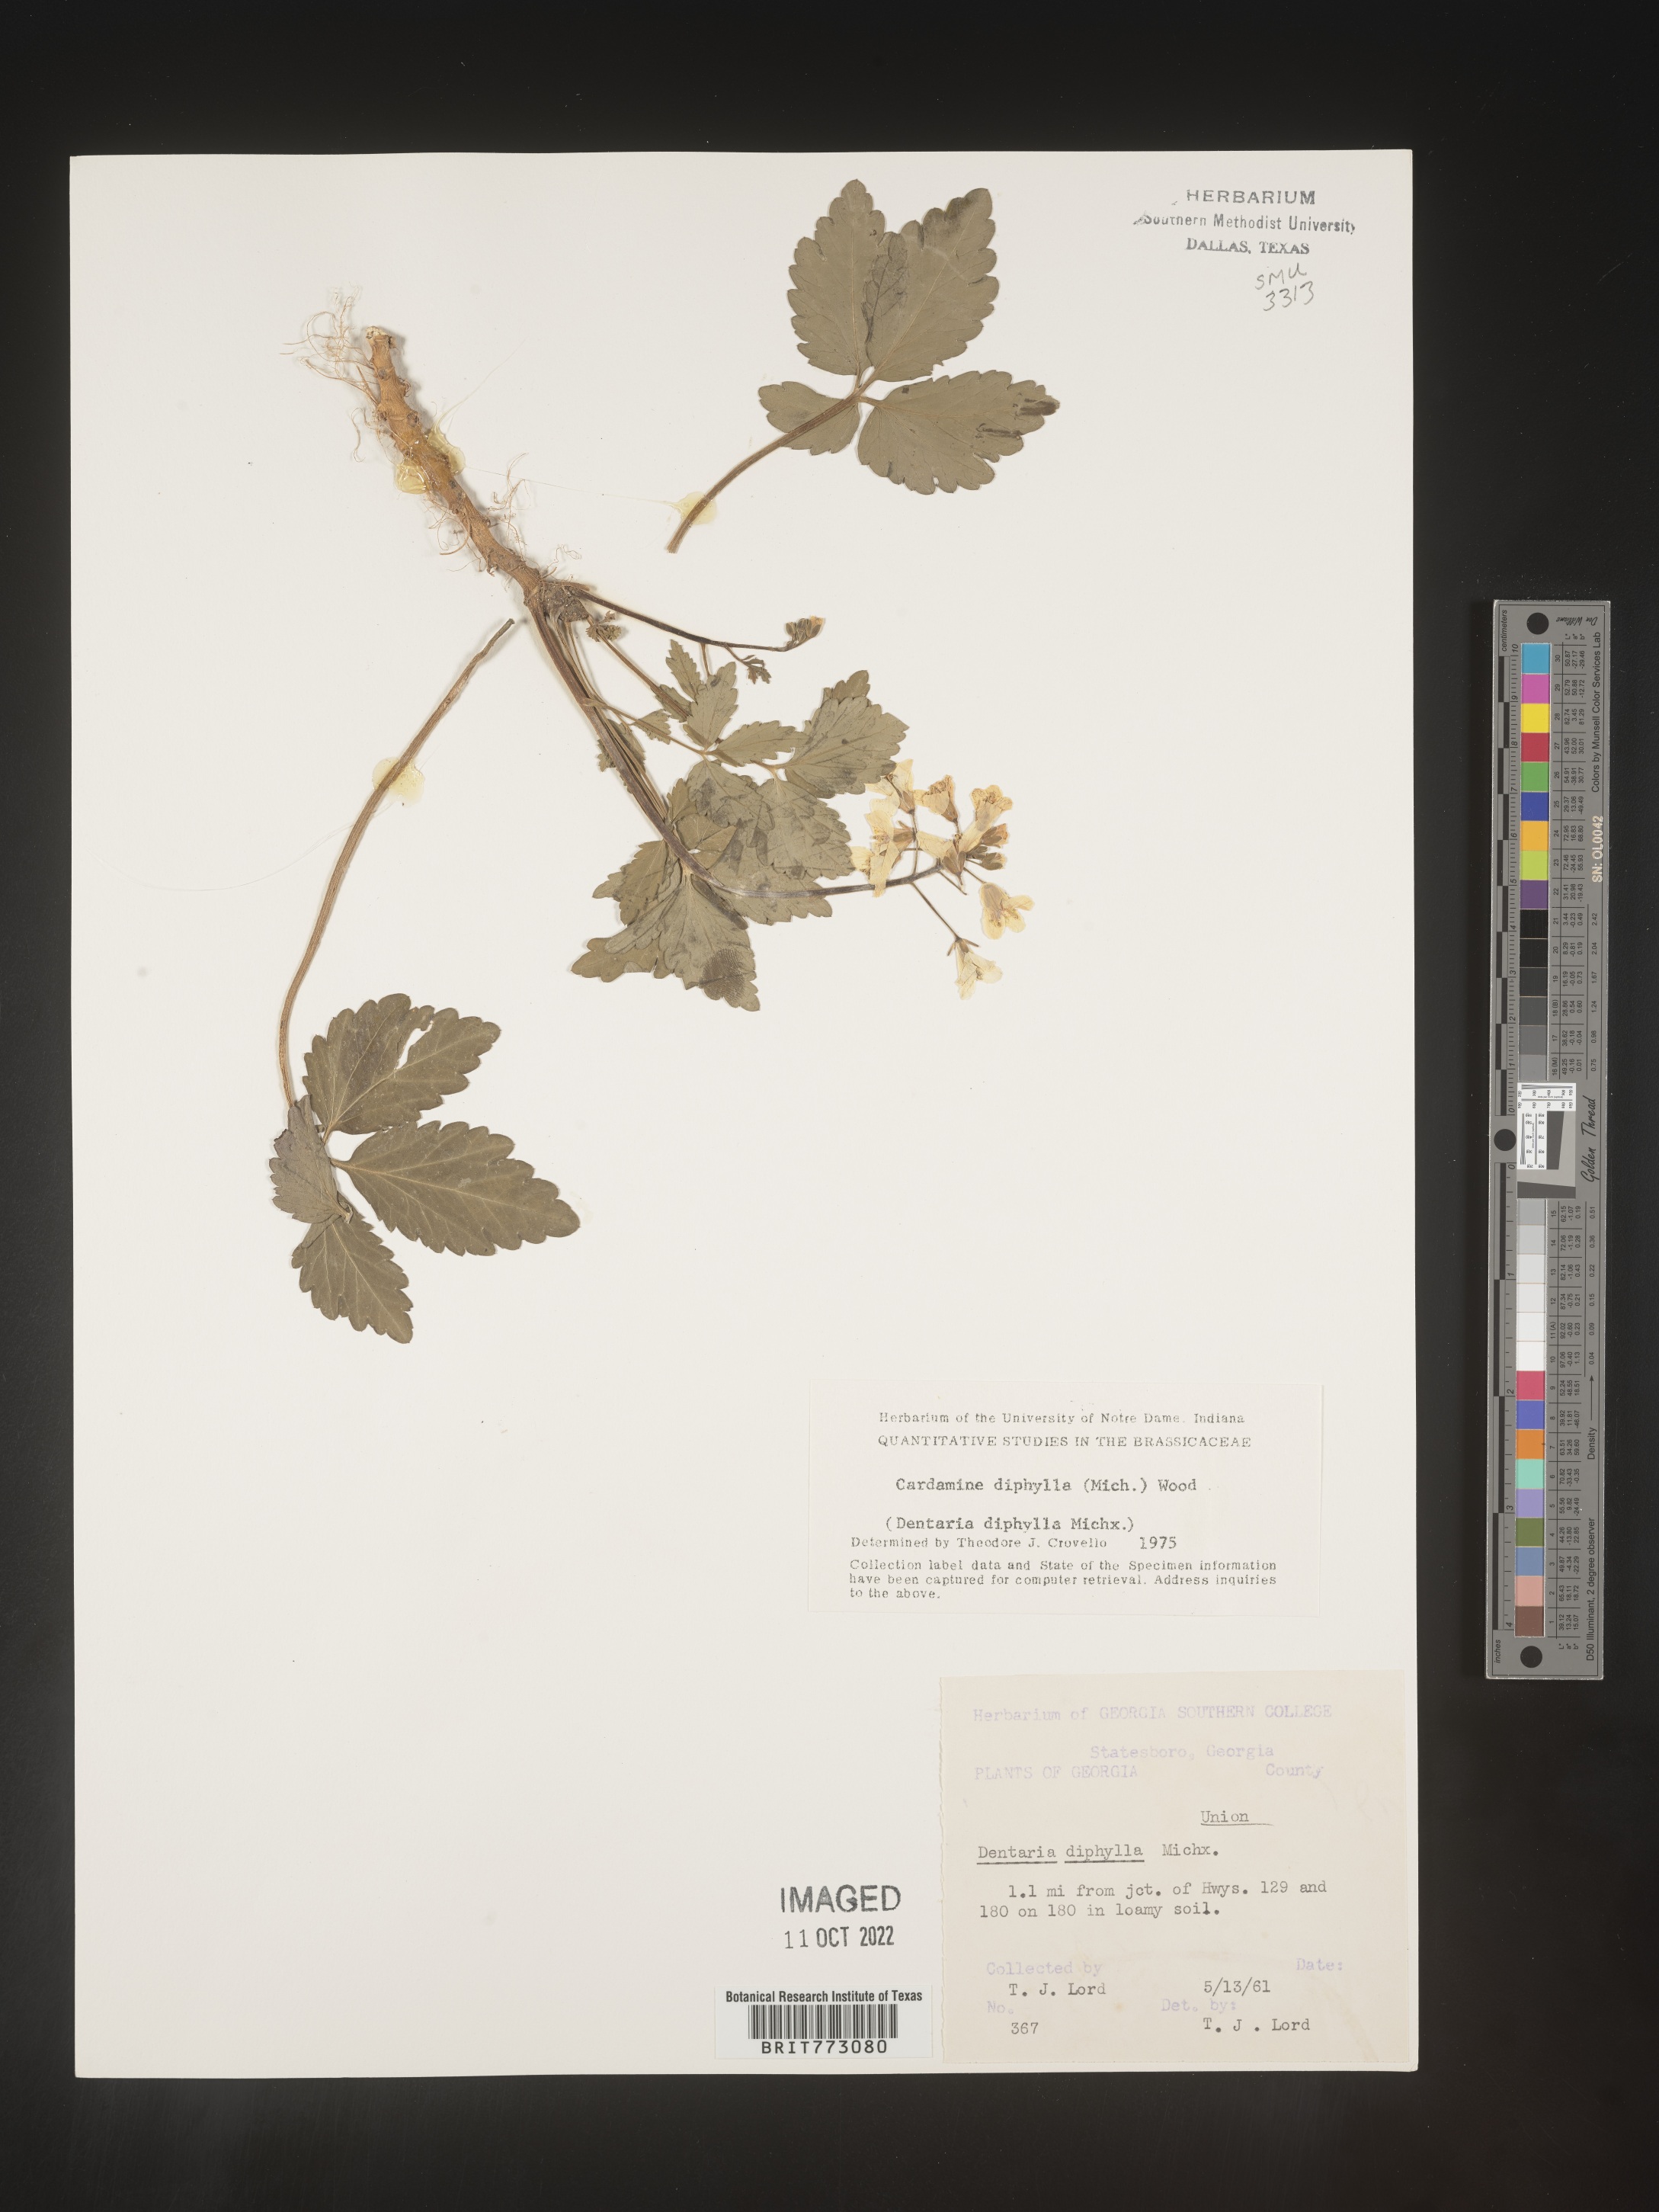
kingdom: Plantae
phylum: Tracheophyta
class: Magnoliopsida
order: Brassicales
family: Brassicaceae
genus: Cardamine
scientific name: Cardamine diphylla
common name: Broad-leaved toothwort
